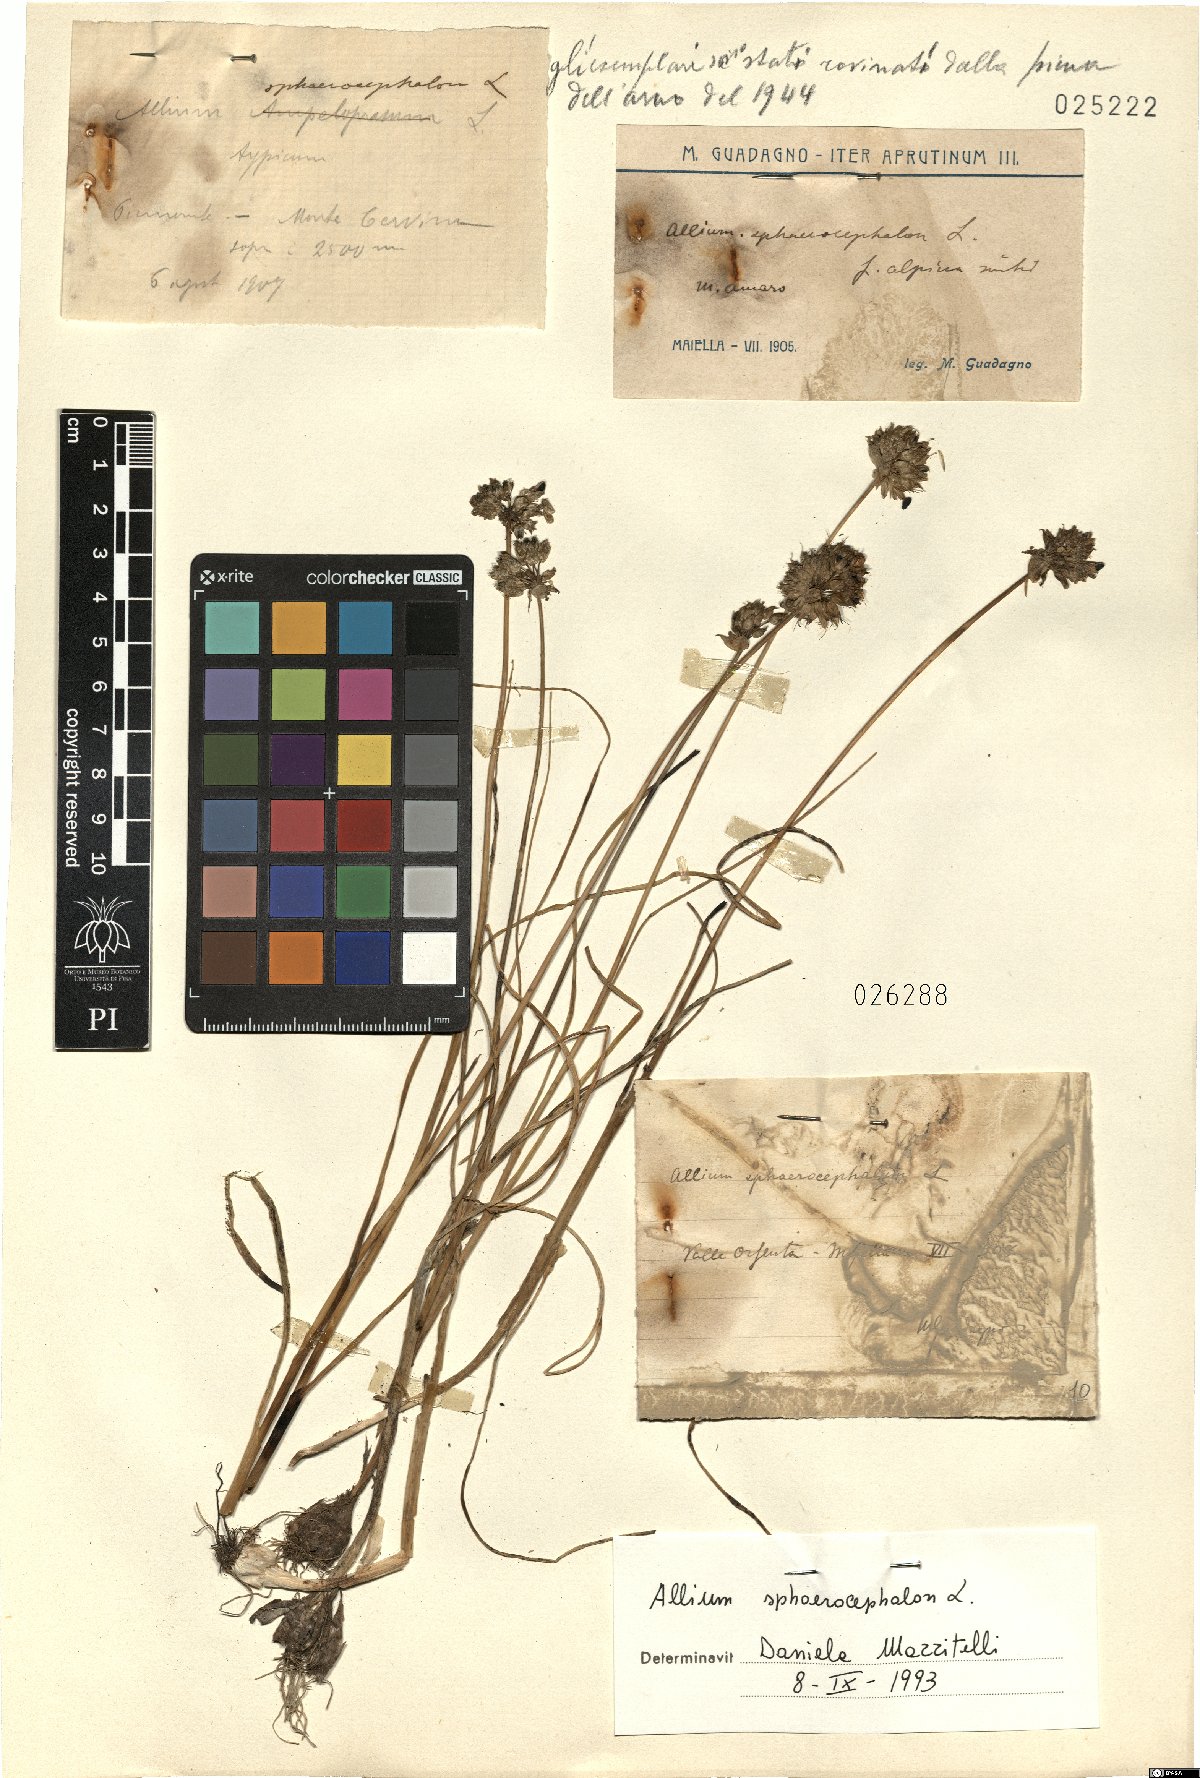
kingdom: Plantae
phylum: Tracheophyta
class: Liliopsida
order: Asparagales
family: Amaryllidaceae
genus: Allium
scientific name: Allium sphaerocephalon
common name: Round-headed leek
